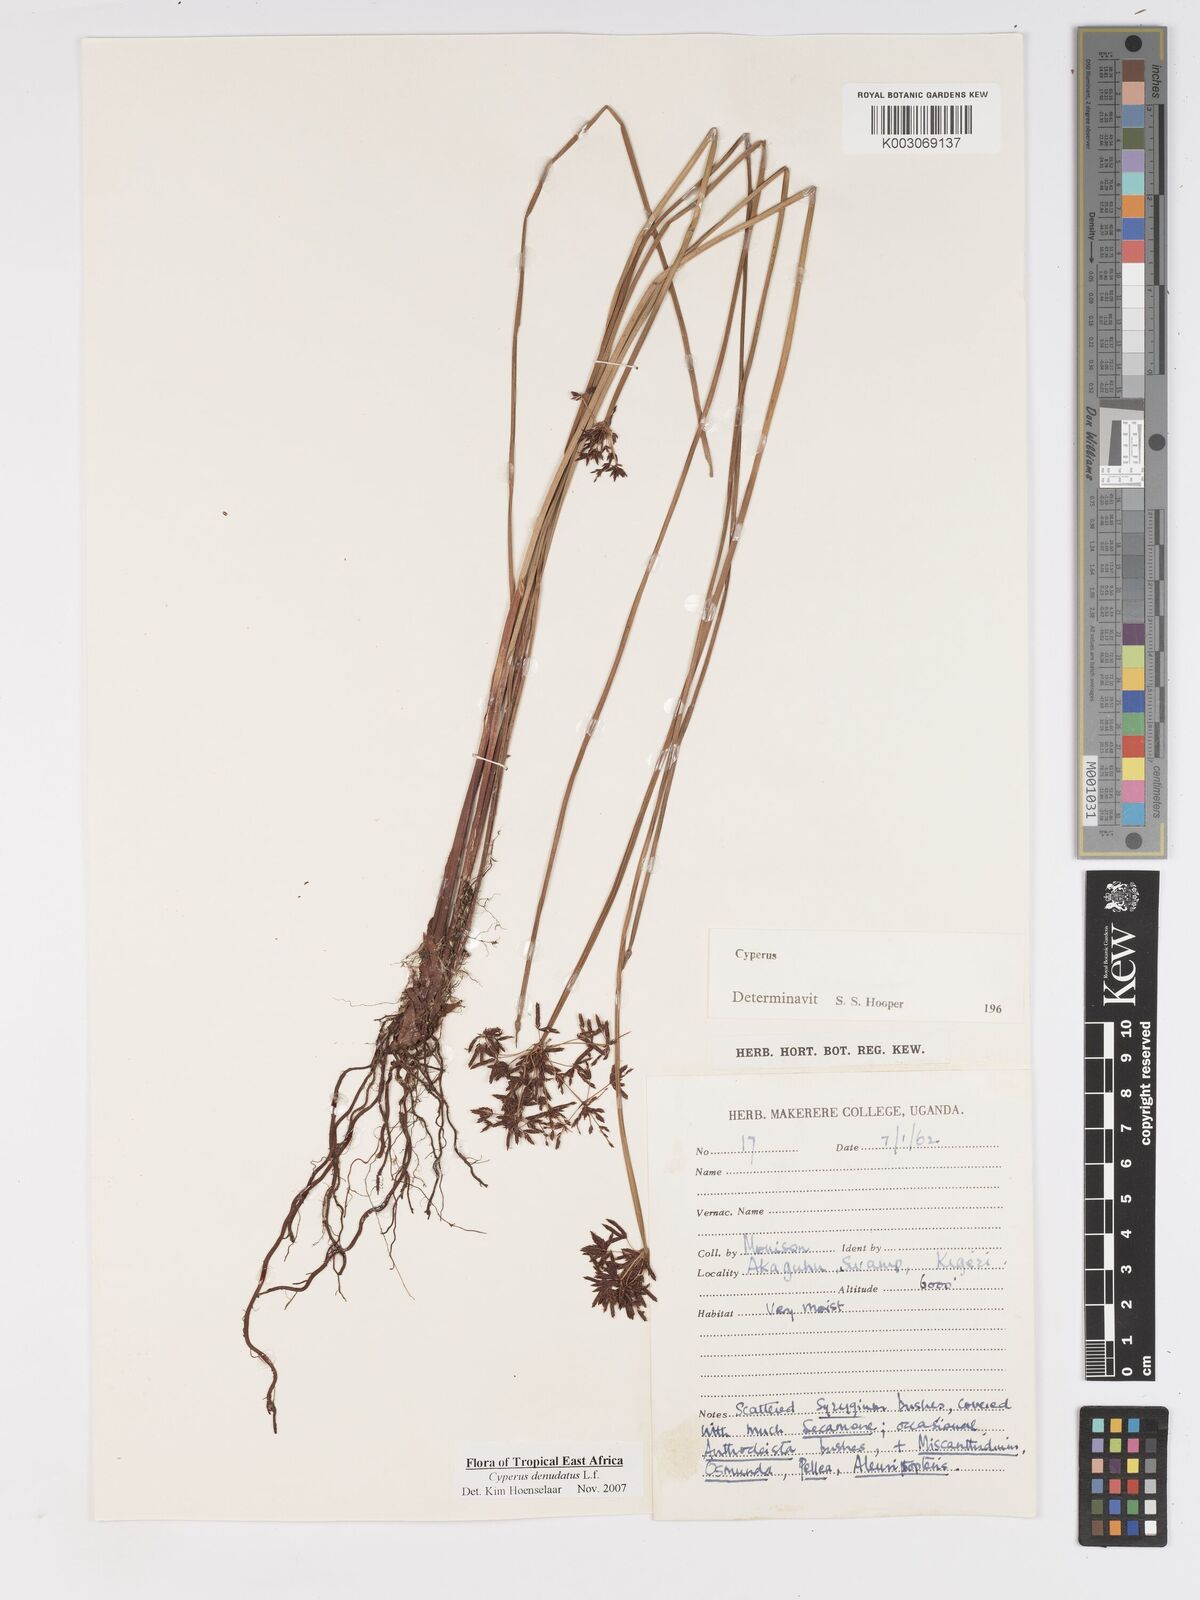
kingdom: Plantae
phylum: Tracheophyta
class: Liliopsida
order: Poales
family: Cyperaceae
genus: Cyperus
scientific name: Cyperus platycaulis
